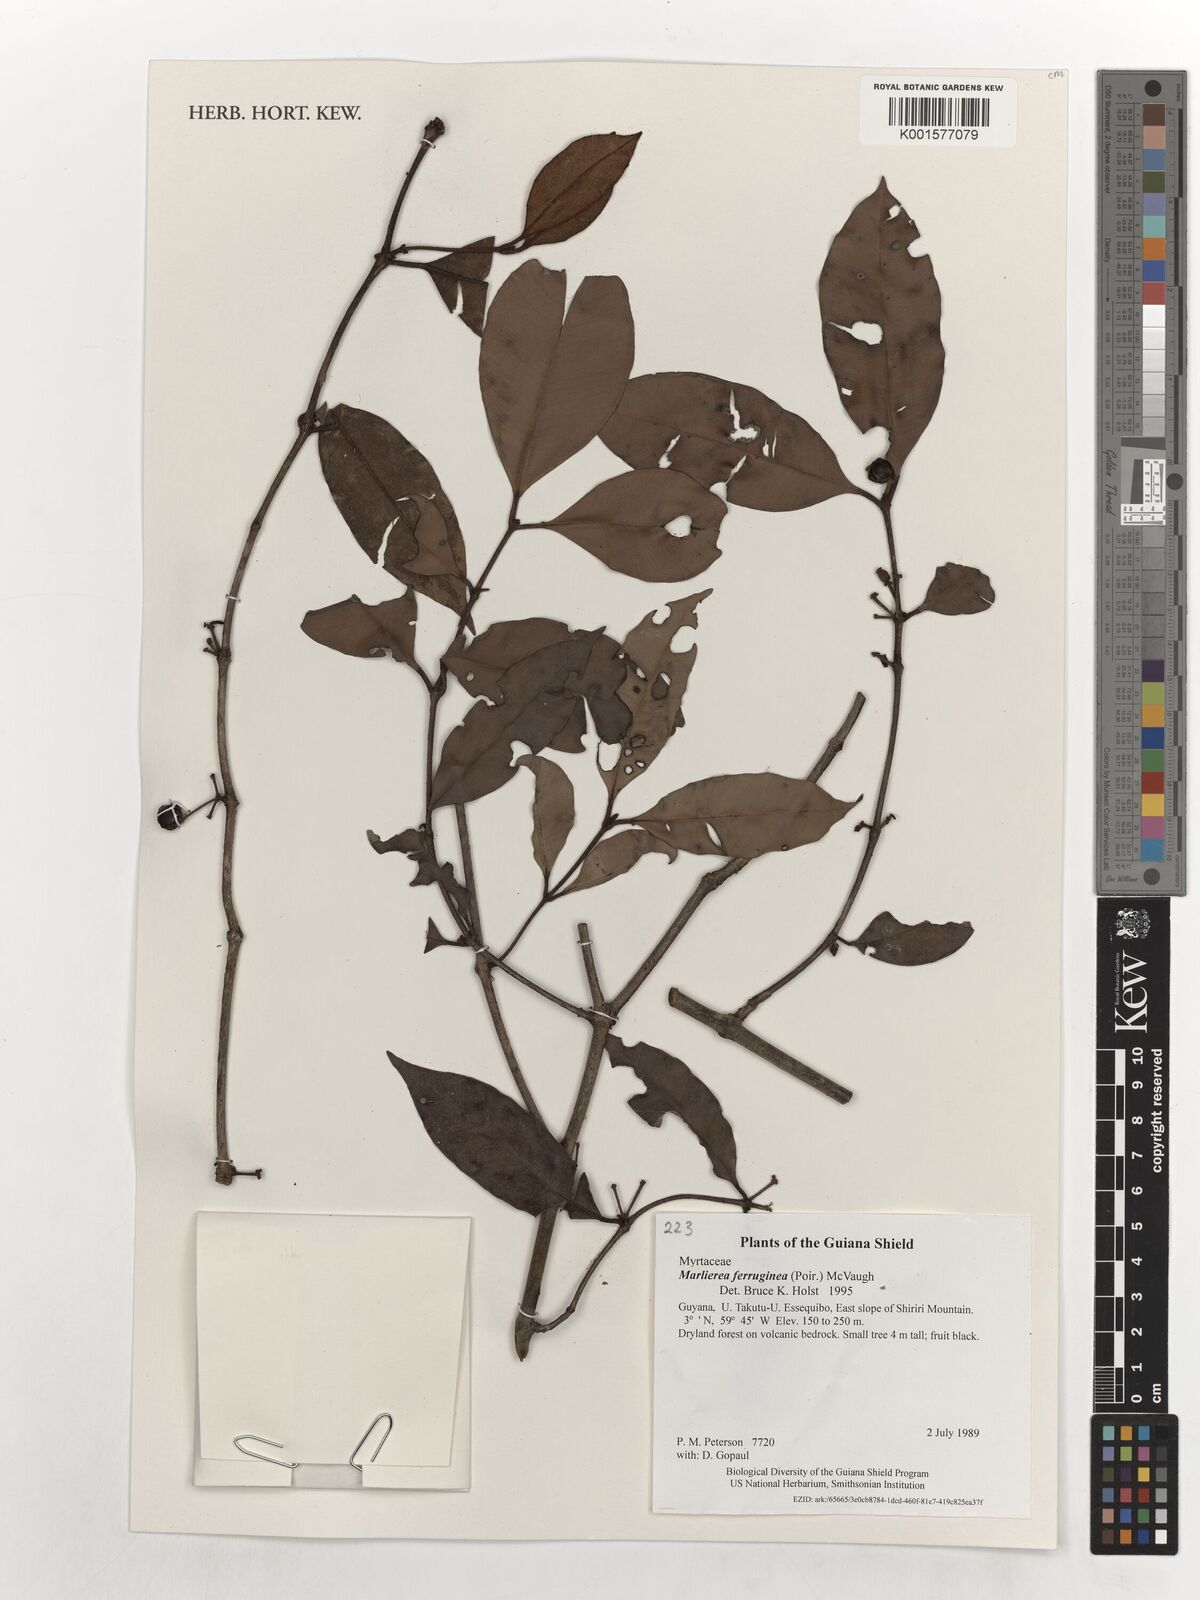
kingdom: Plantae
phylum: Tracheophyta
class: Magnoliopsida
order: Myrtales
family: Myrtaceae
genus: Myrcia
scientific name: Myrcia ferruginea
